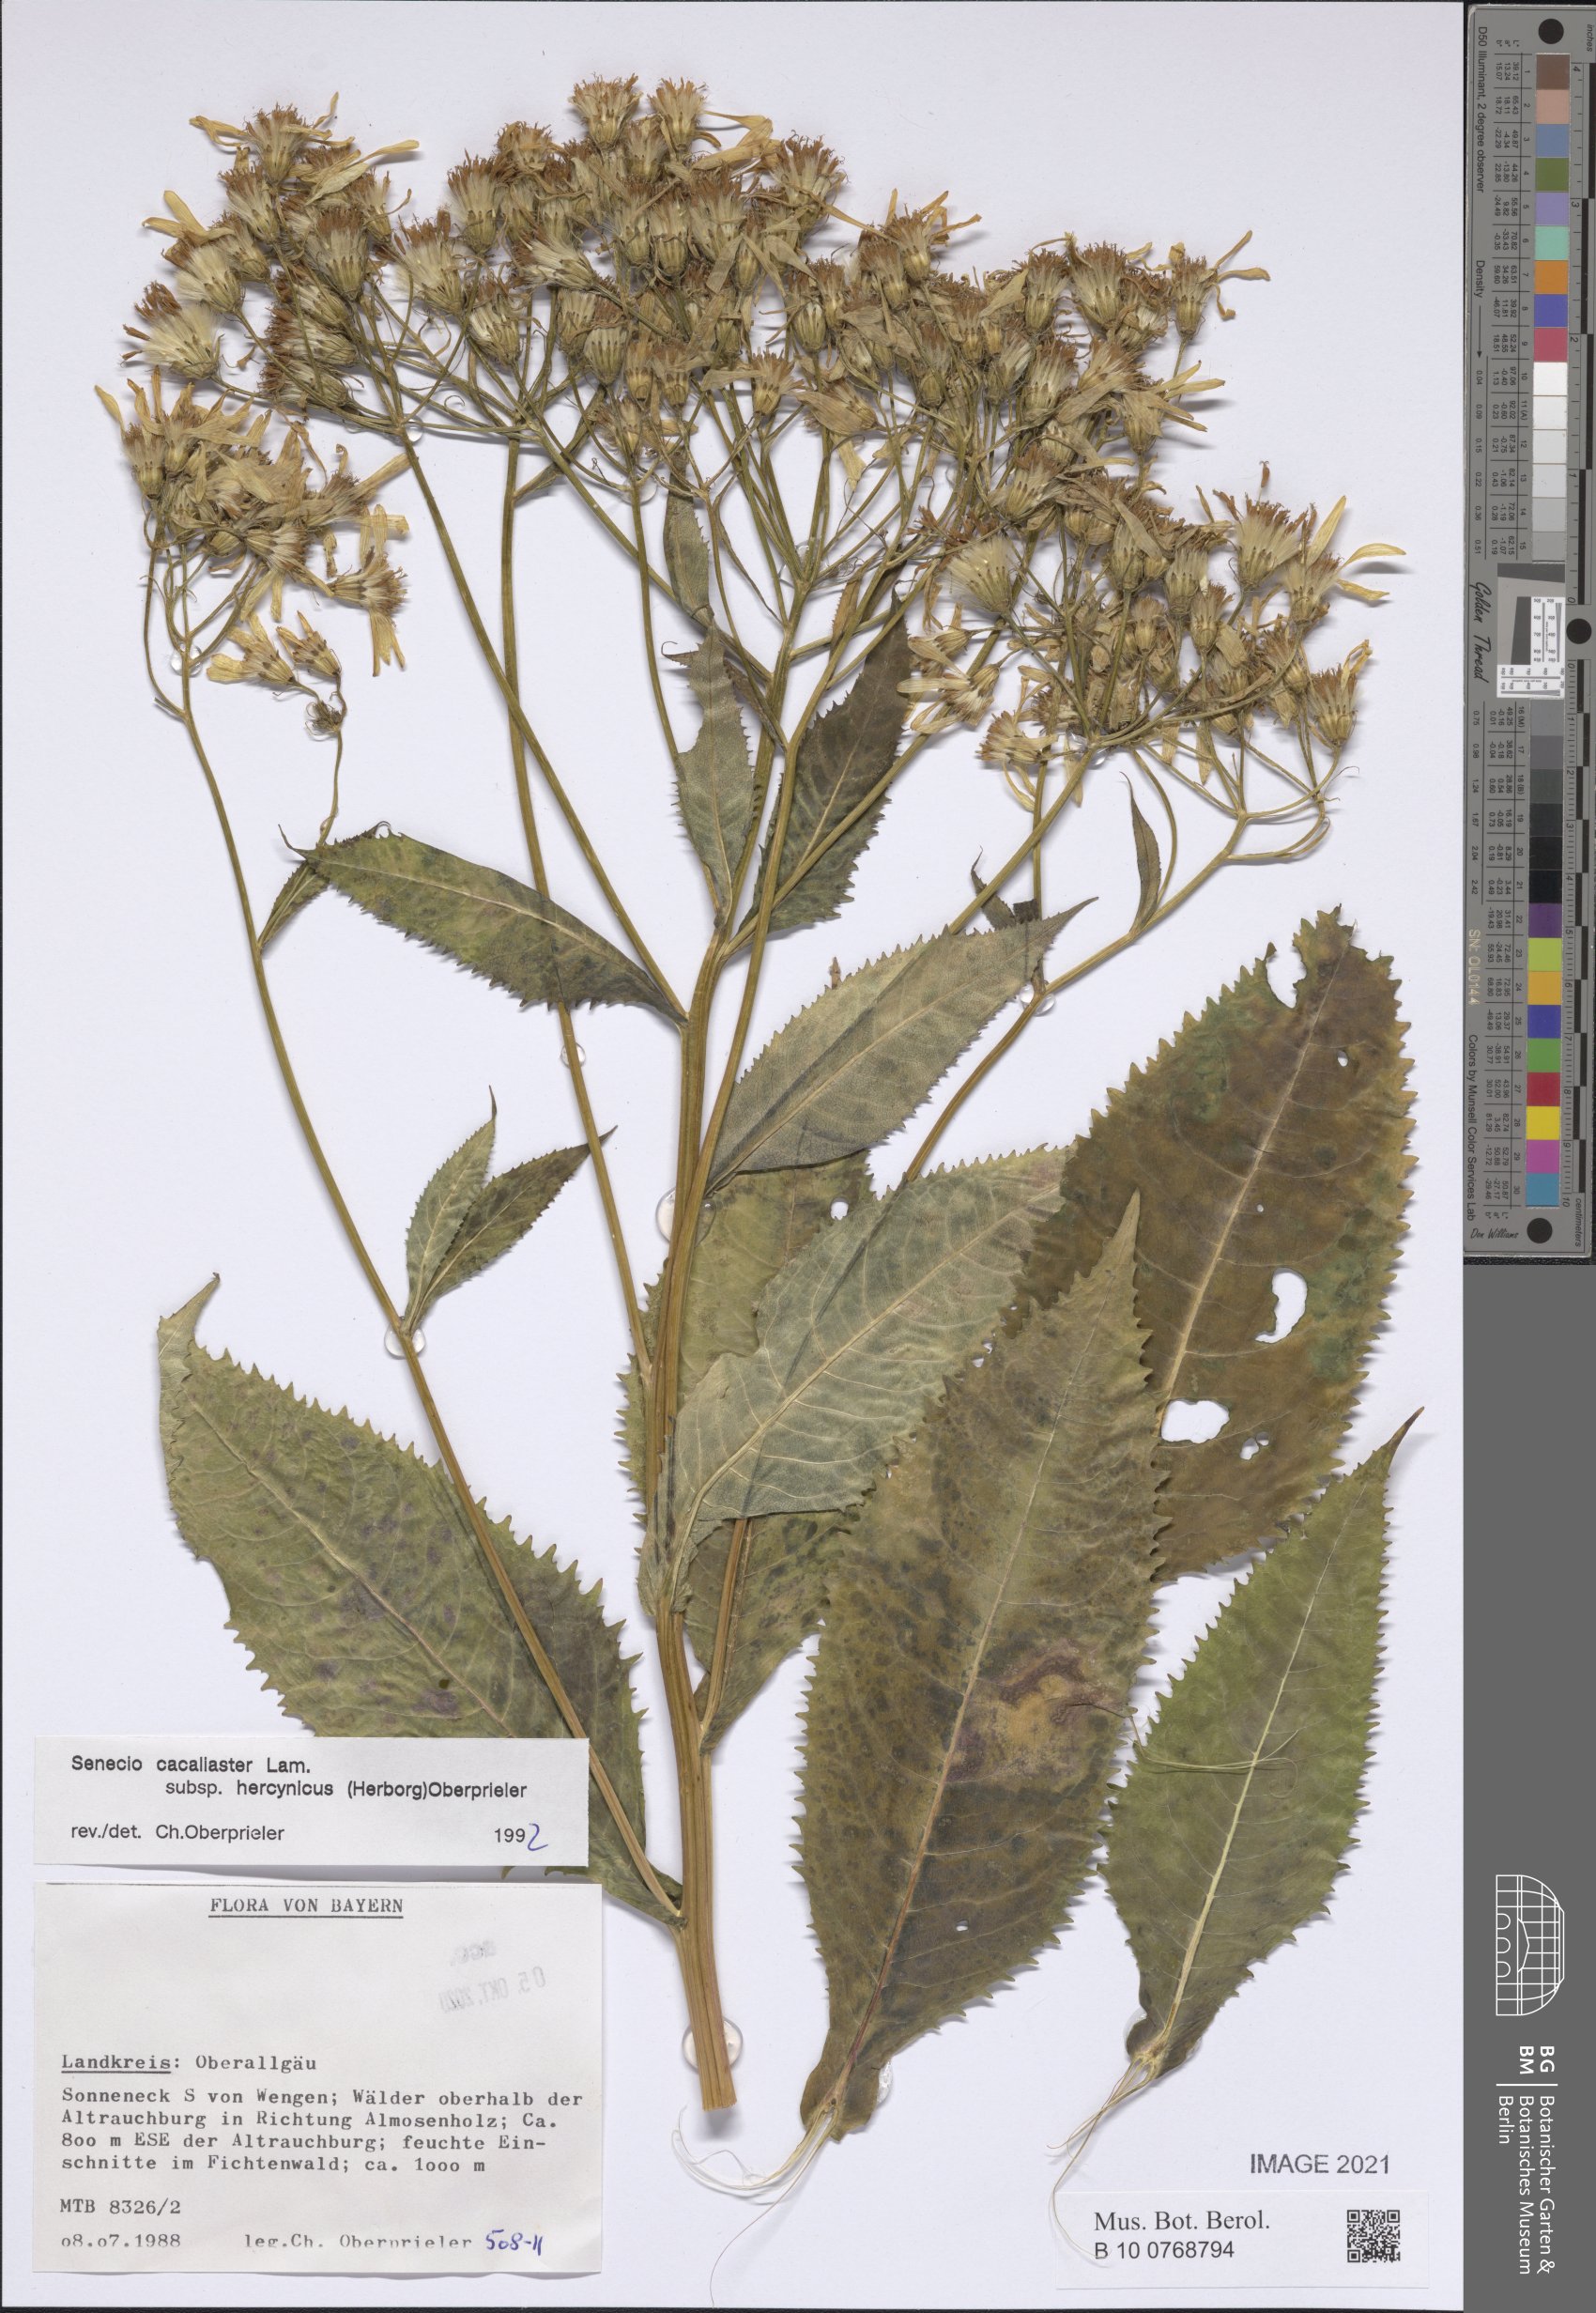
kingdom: Plantae
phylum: Tracheophyta
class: Magnoliopsida
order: Asterales
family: Asteraceae
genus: Senecio
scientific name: Senecio hercynicus
